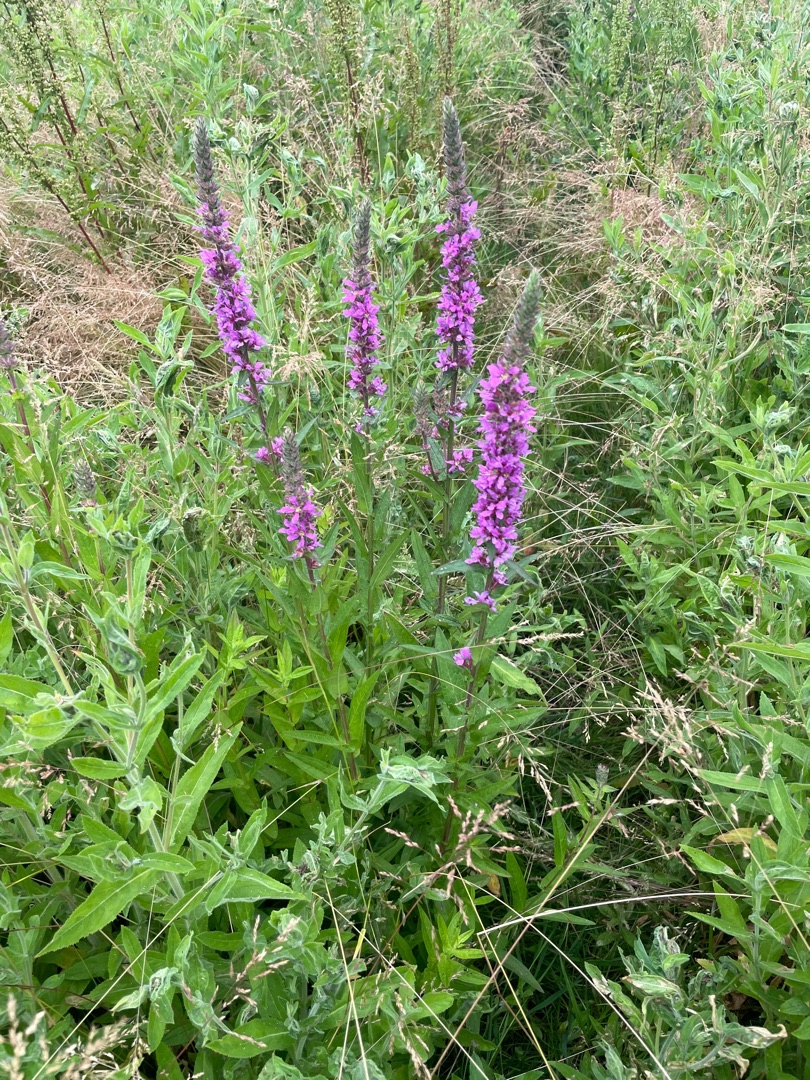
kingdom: Plantae
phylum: Tracheophyta
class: Magnoliopsida
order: Myrtales
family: Lythraceae
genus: Lythrum
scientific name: Lythrum salicaria
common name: Kattehale
